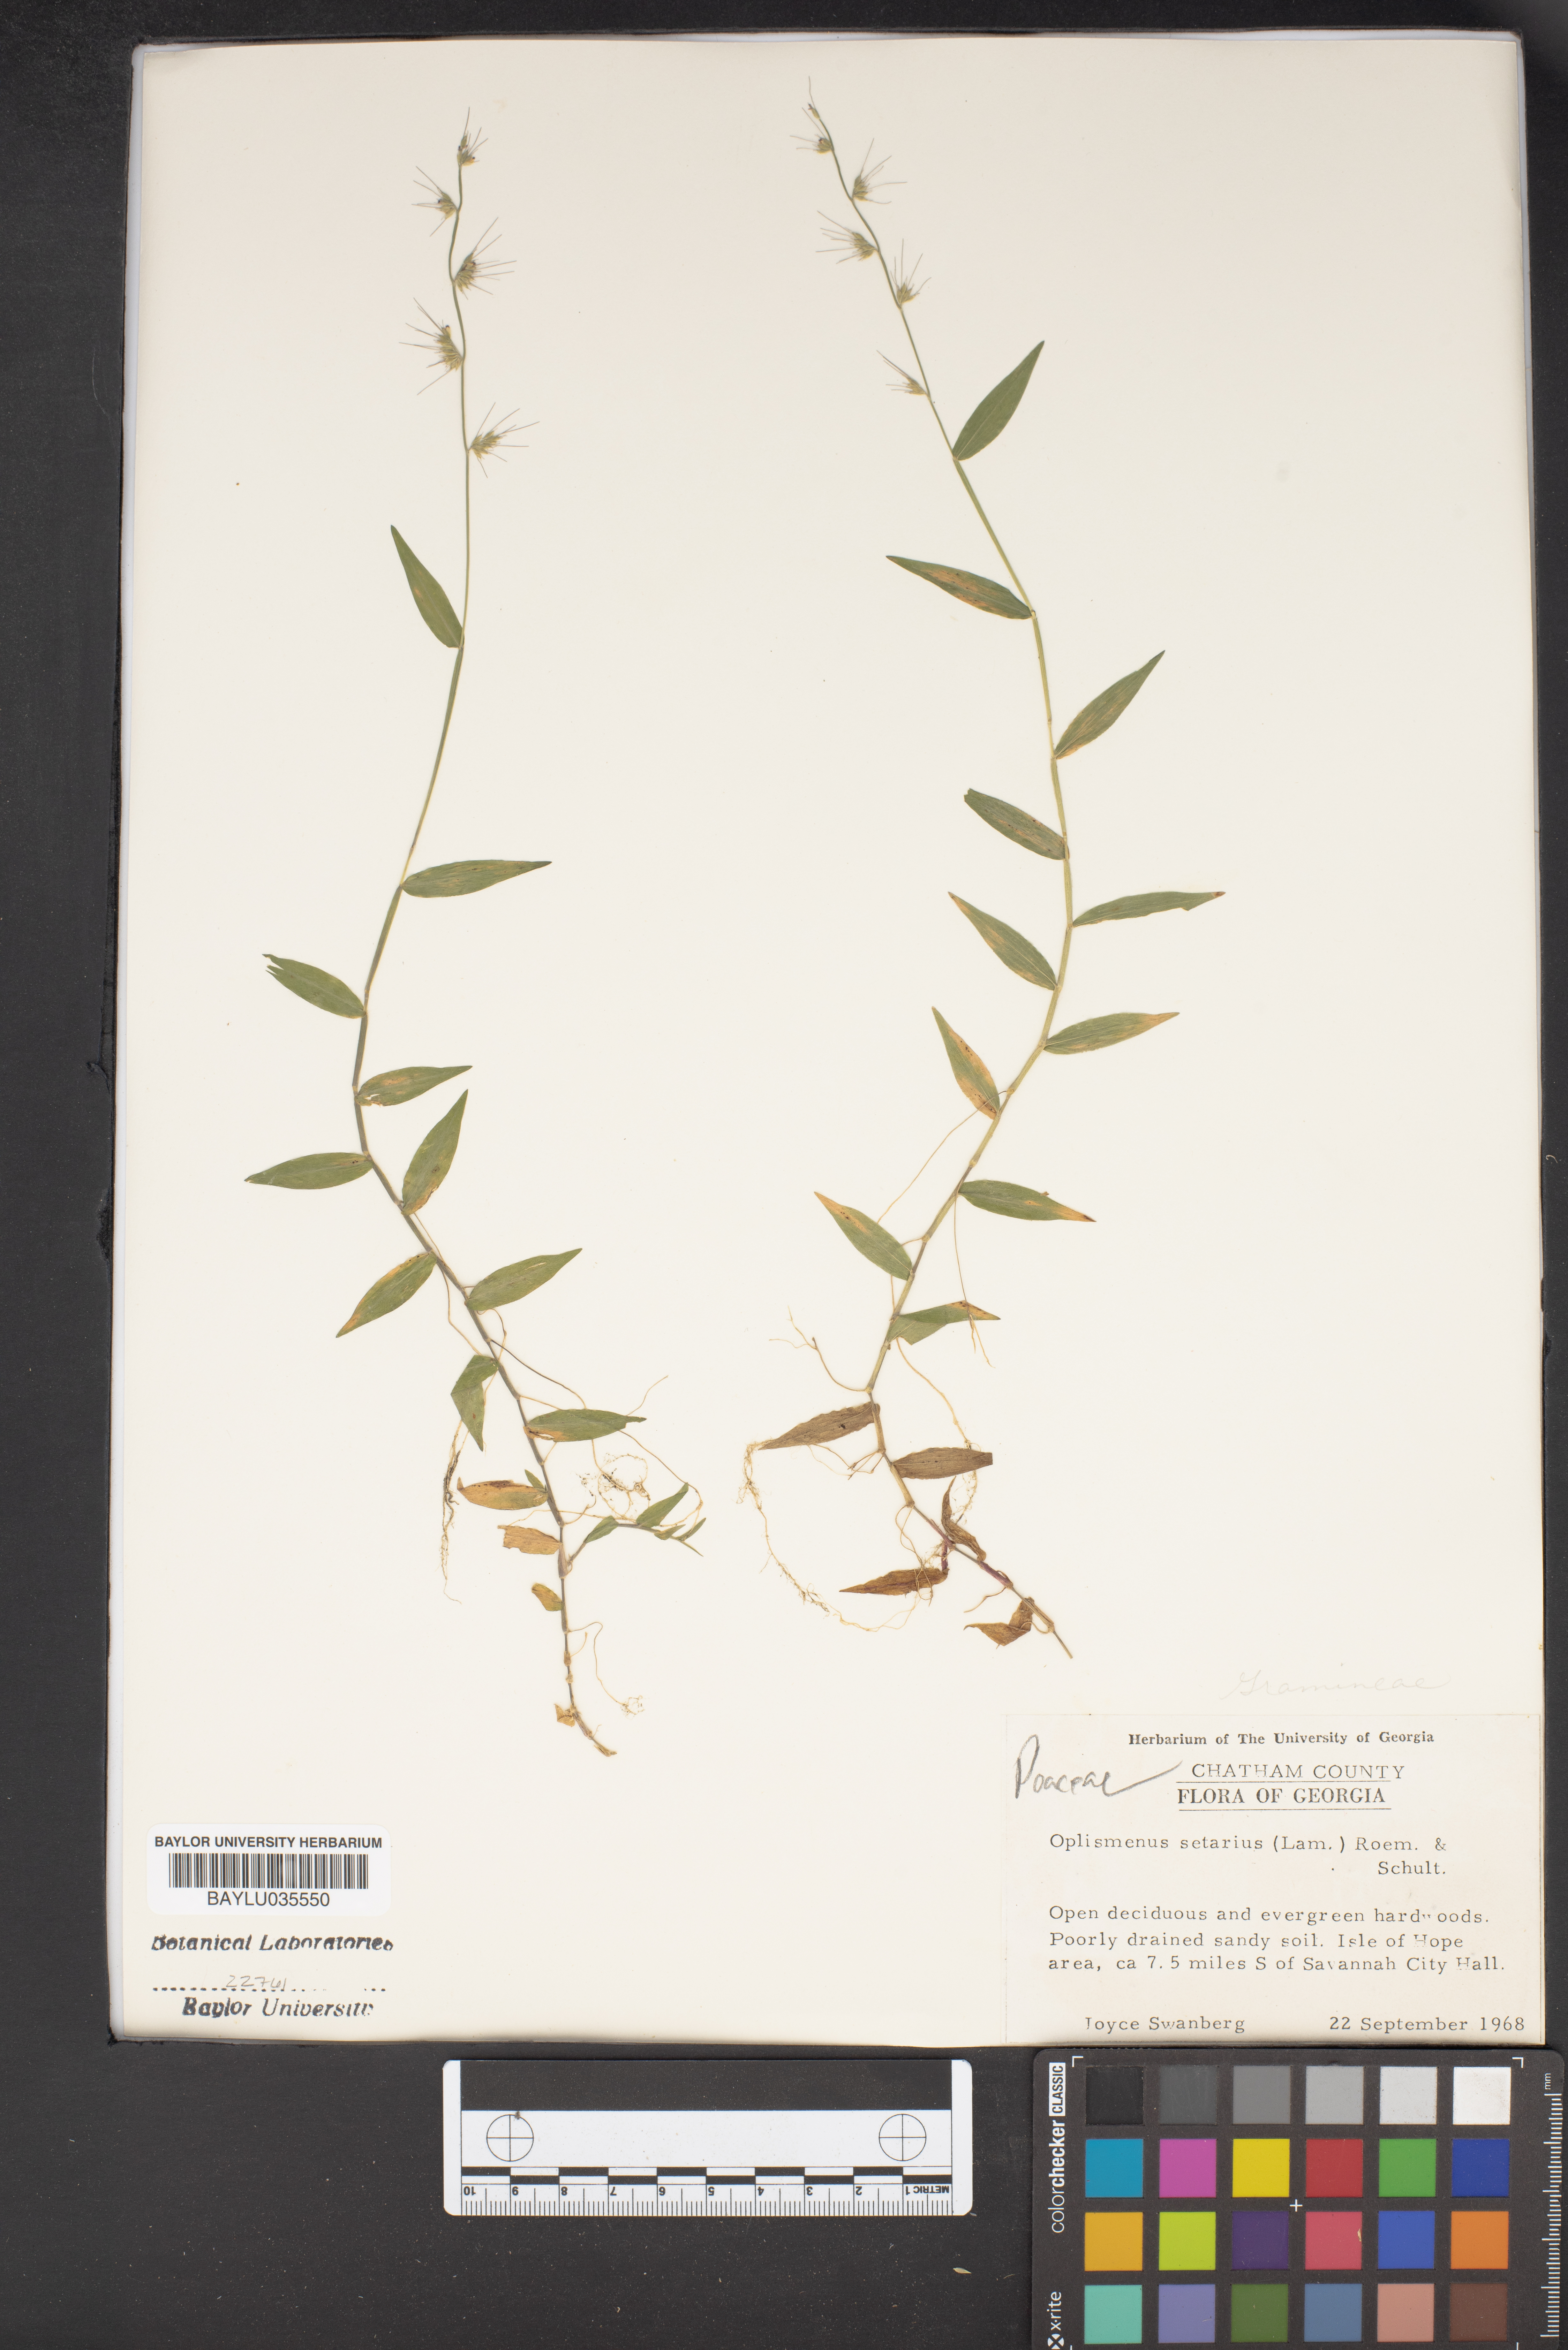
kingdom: Plantae
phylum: Tracheophyta
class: Liliopsida
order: Poales
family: Poaceae
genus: Oplismenus
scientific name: Oplismenus compositus
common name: Running mountain grass
